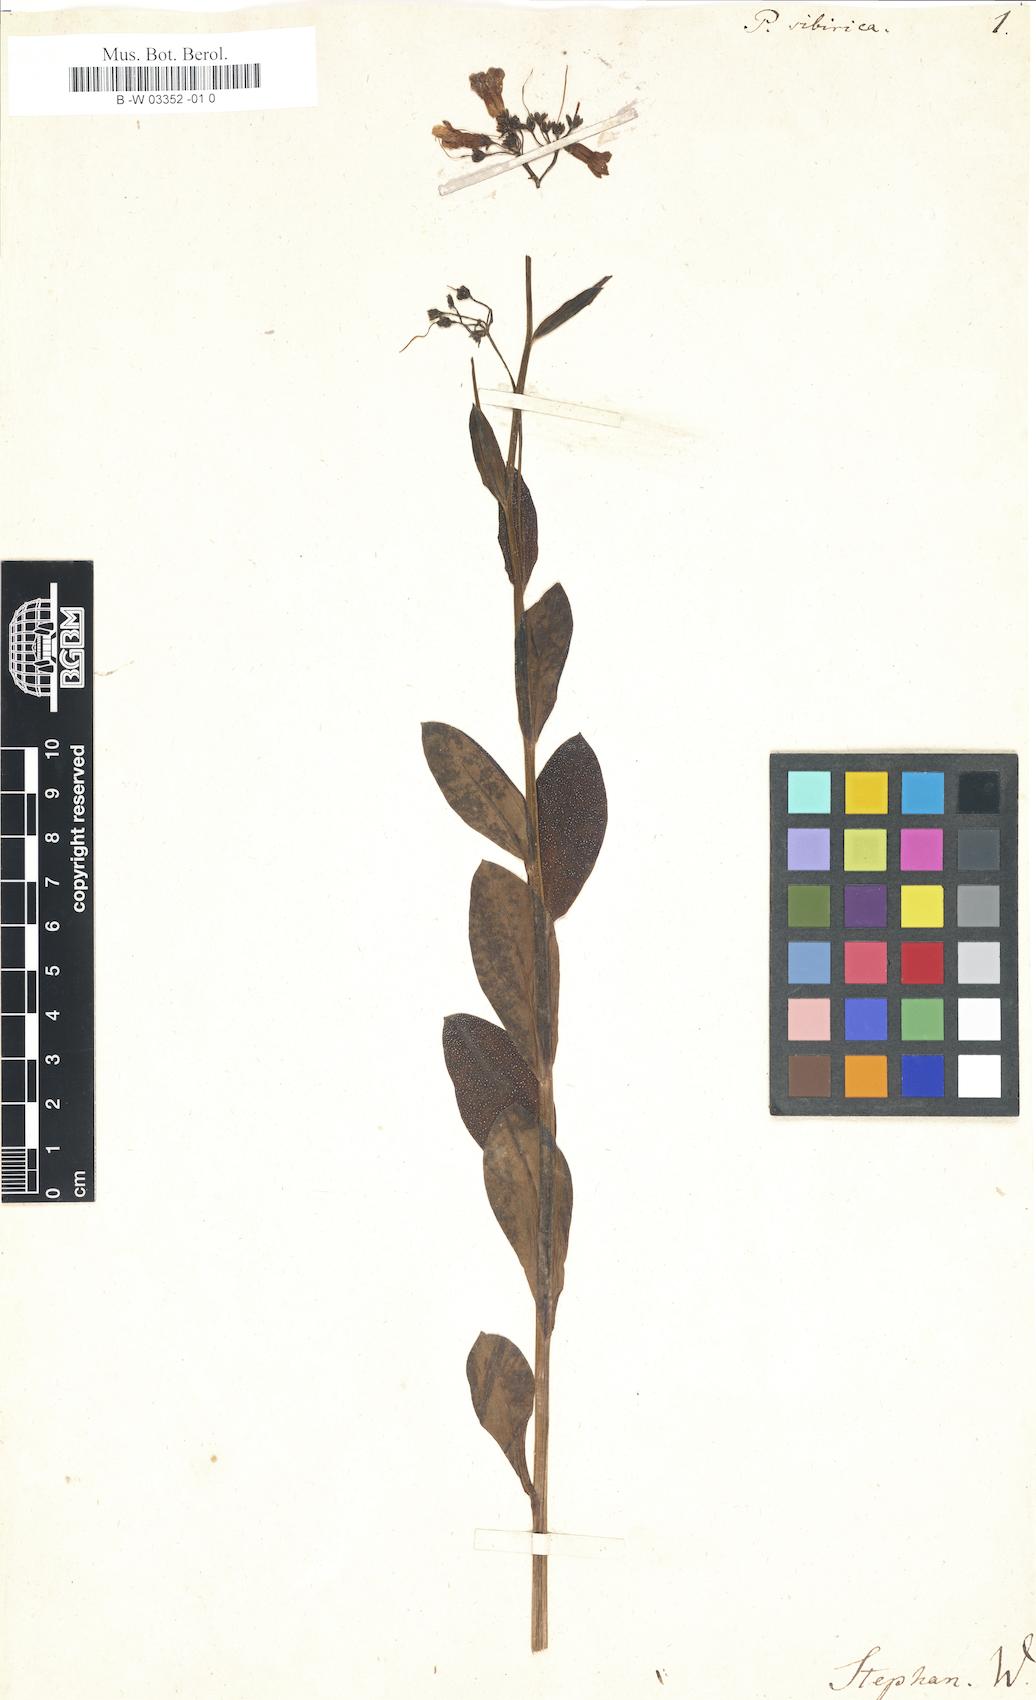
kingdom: Plantae
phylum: Tracheophyta
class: Magnoliopsida
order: Boraginales
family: Boraginaceae
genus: Mertensia
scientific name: Mertensia sibirica
